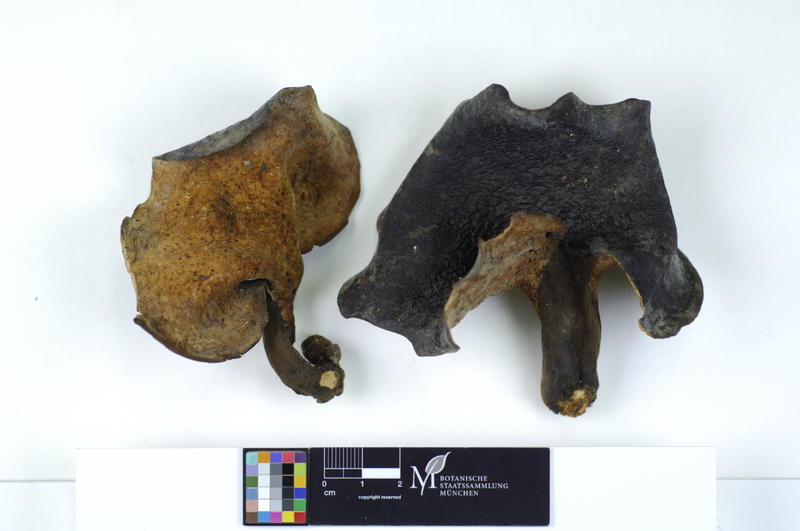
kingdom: Fungi
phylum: Basidiomycota
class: Agaricomycetes
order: Polyporales
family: Polyporaceae
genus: Picipes
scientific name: Picipes badius
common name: Bay polypore
